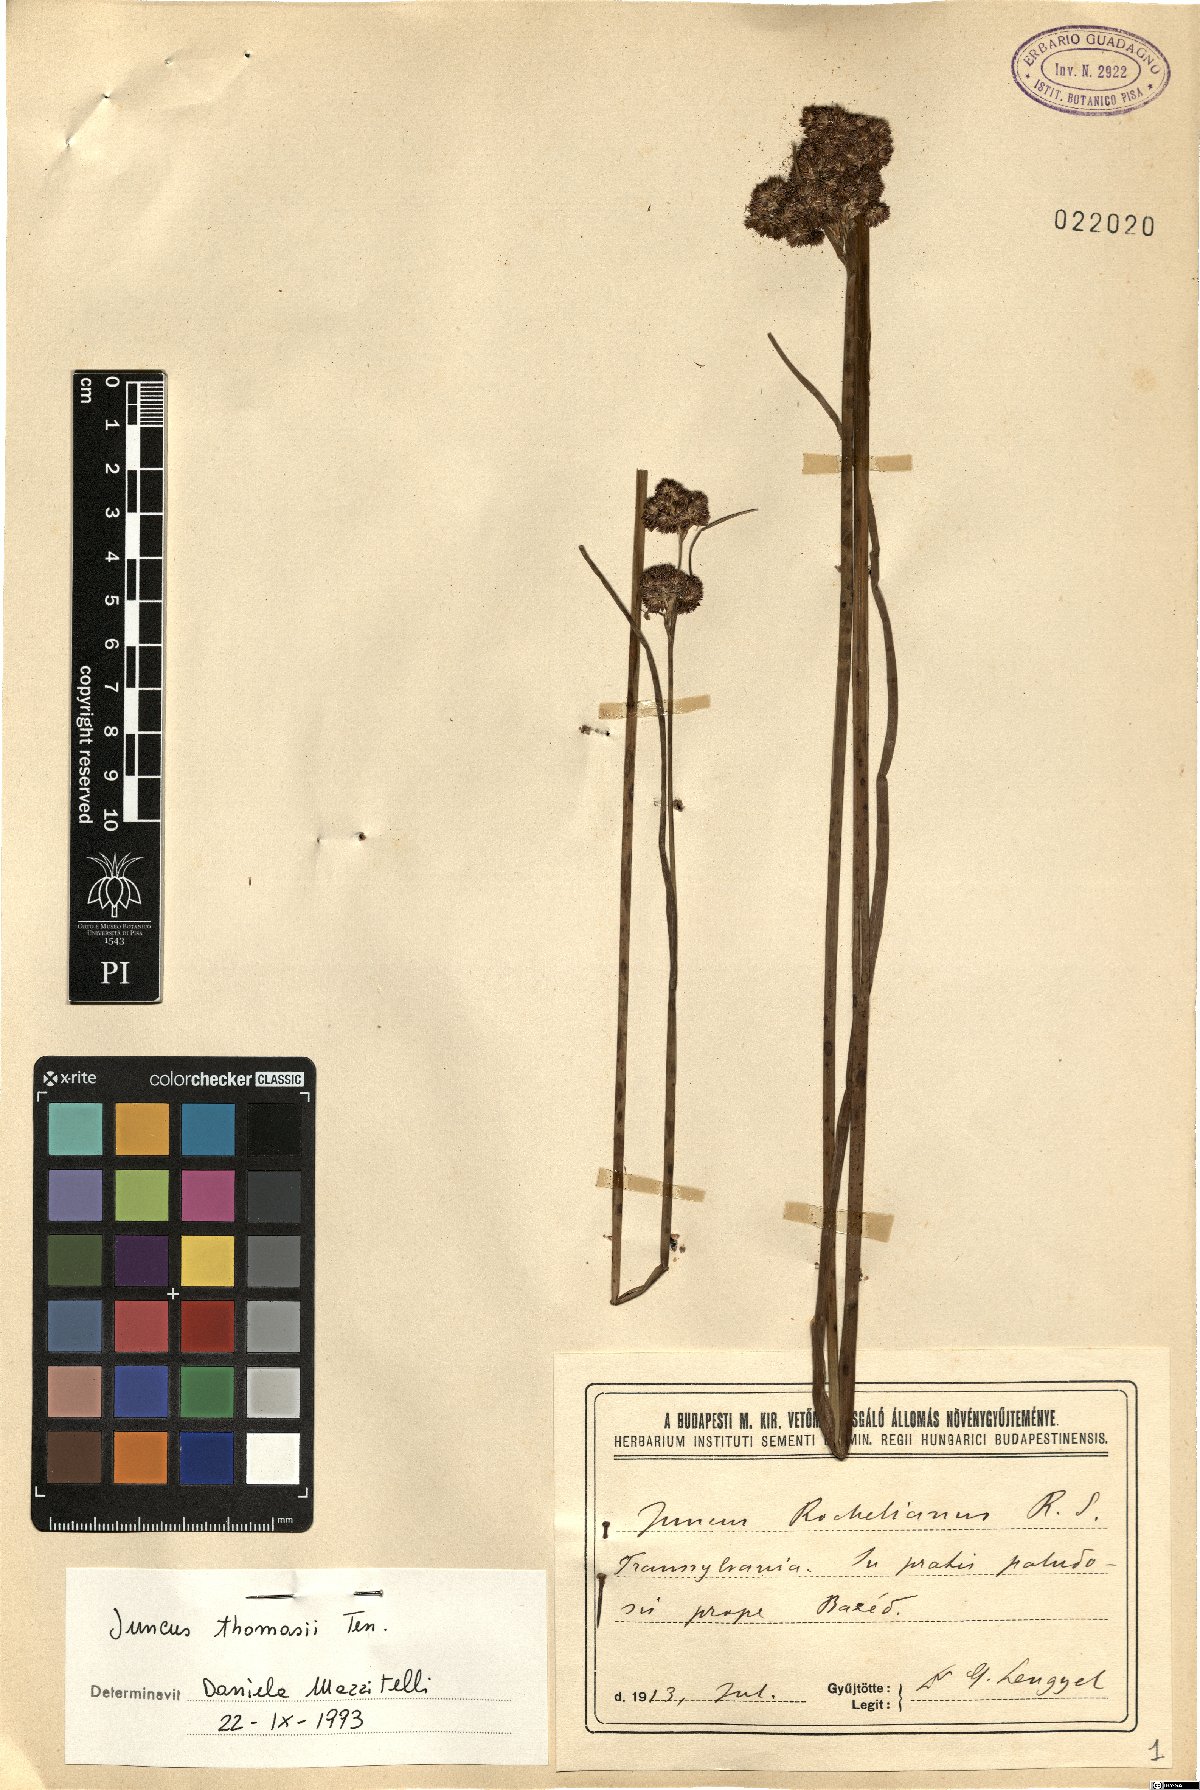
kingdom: Plantae
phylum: Tracheophyta
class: Liliopsida
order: Poales
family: Juncaceae
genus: Juncus
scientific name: Juncus thomasii
